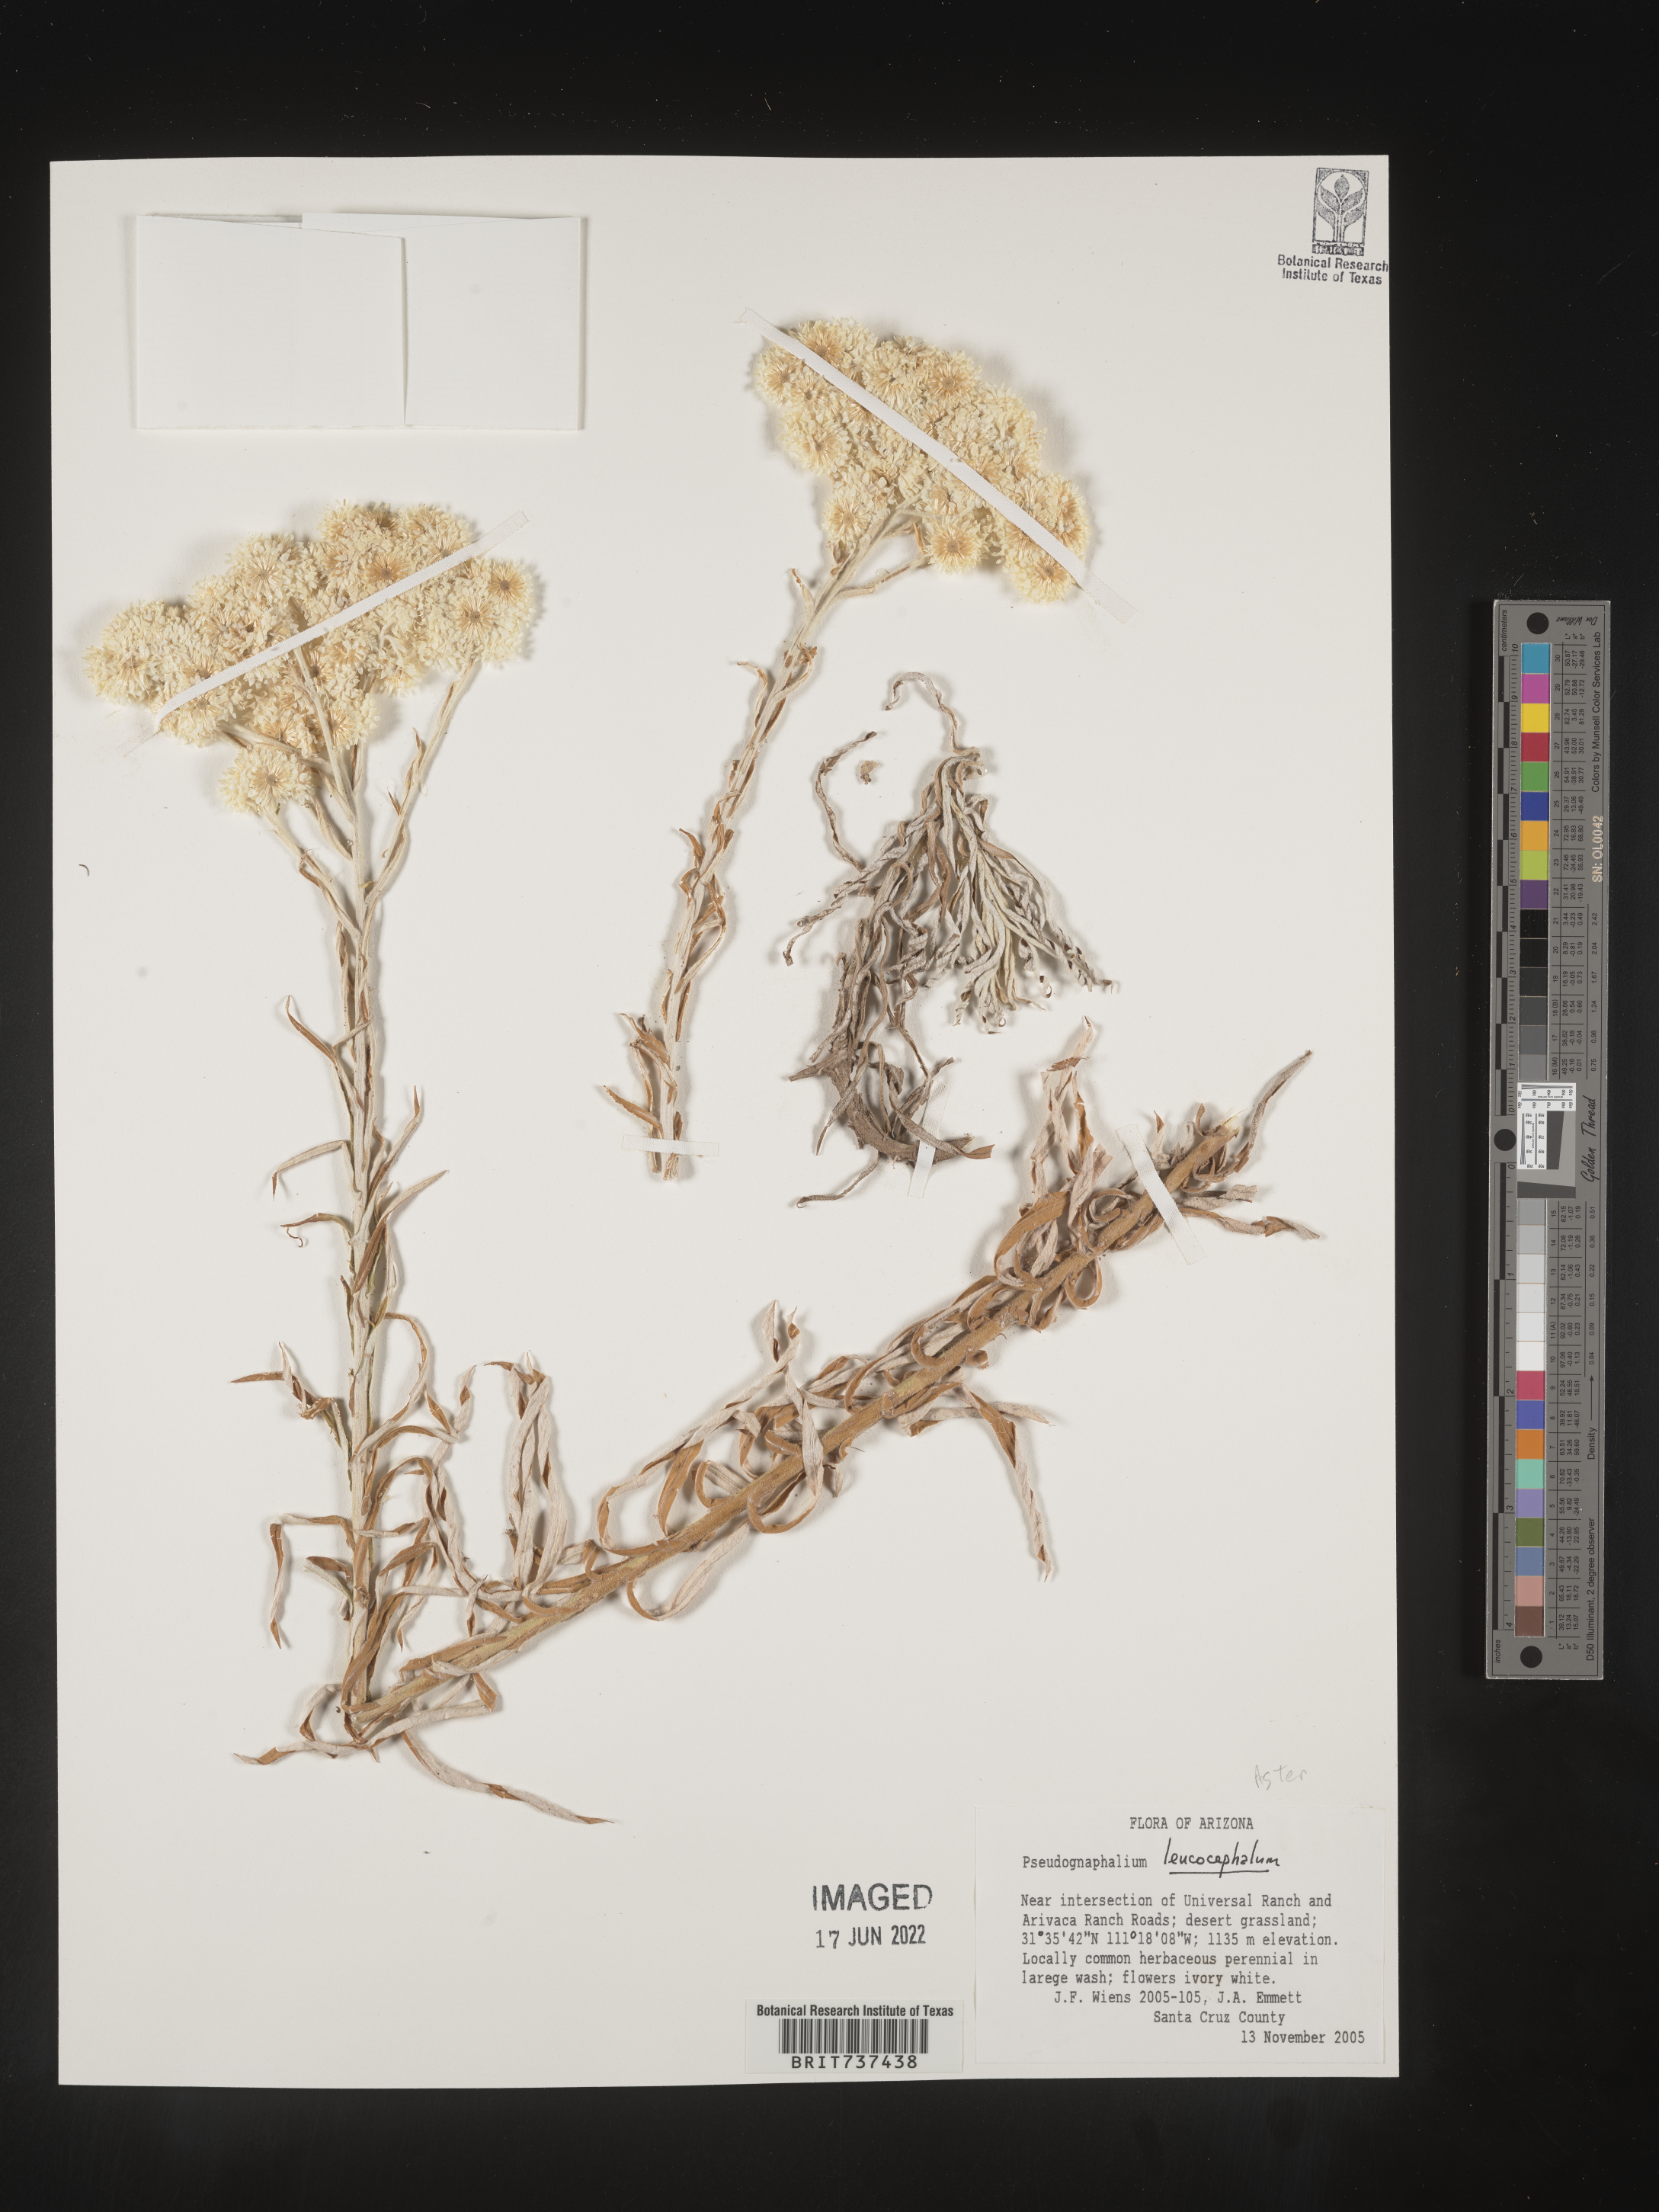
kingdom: Plantae
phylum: Tracheophyta
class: Magnoliopsida
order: Asterales
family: Asteraceae
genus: Pseudognaphalium
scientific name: Pseudognaphalium leucocephalum
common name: White cudweed
